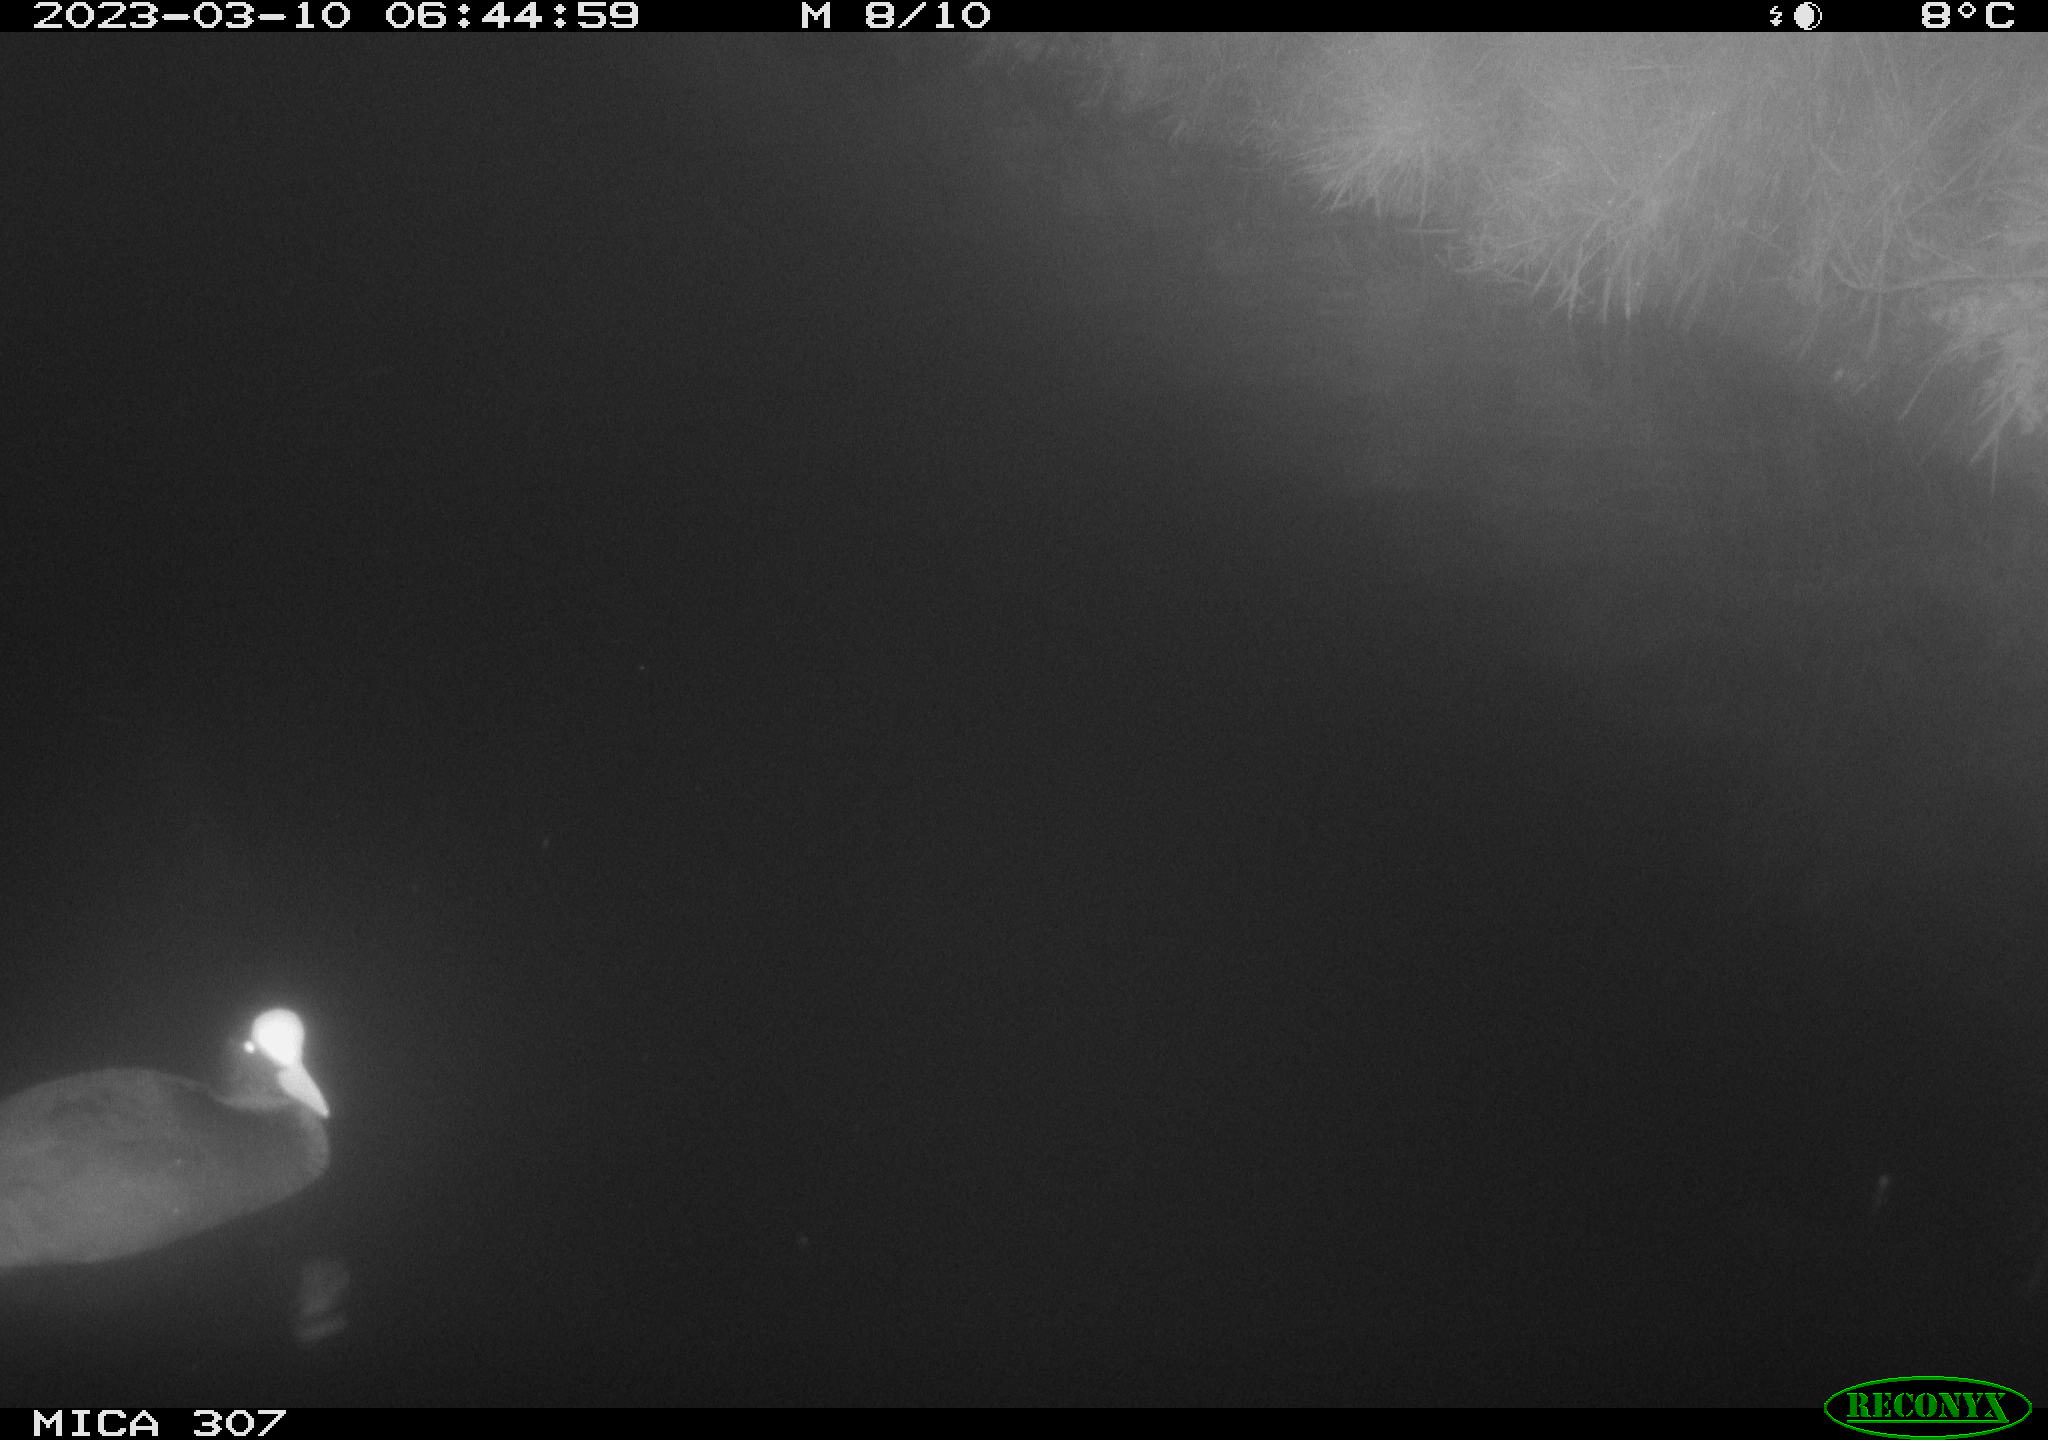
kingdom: Animalia
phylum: Chordata
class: Aves
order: Anseriformes
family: Anatidae
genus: Anas
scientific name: Anas
